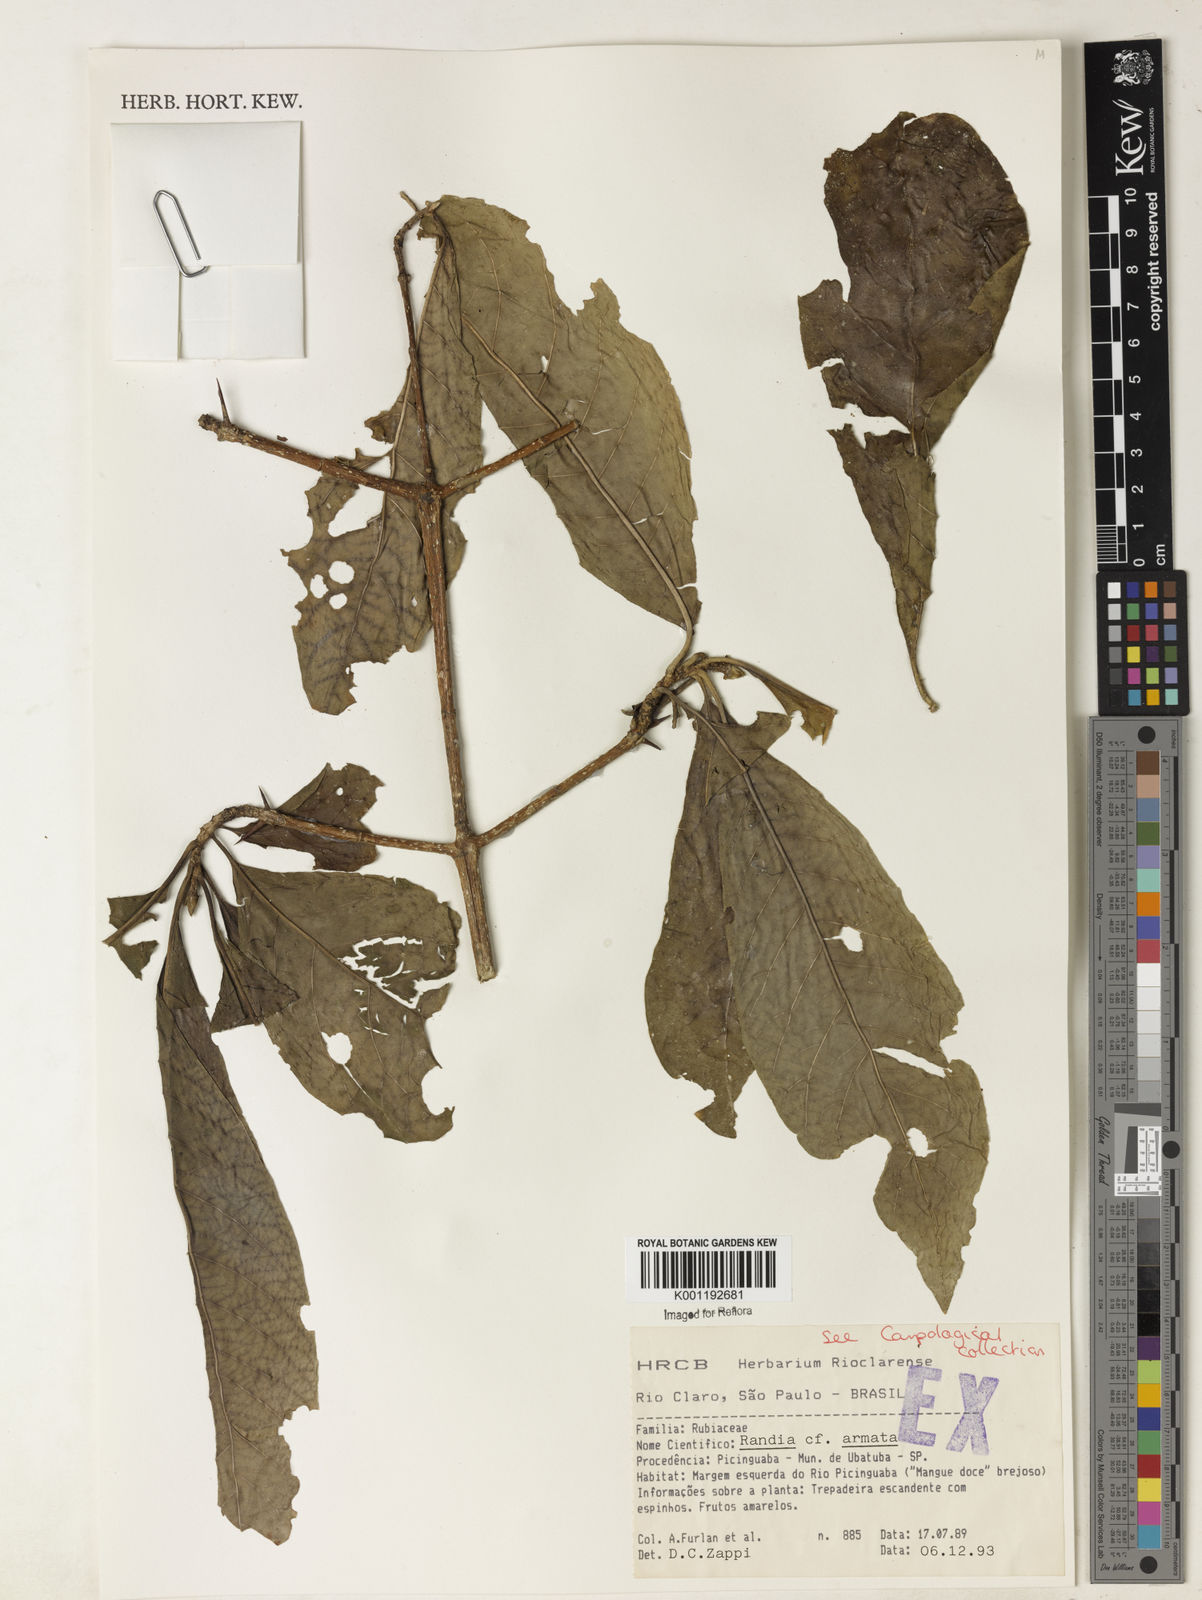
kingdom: Plantae
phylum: Tracheophyta
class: Magnoliopsida
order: Gentianales
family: Rubiaceae
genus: Randia
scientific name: Randia armata
